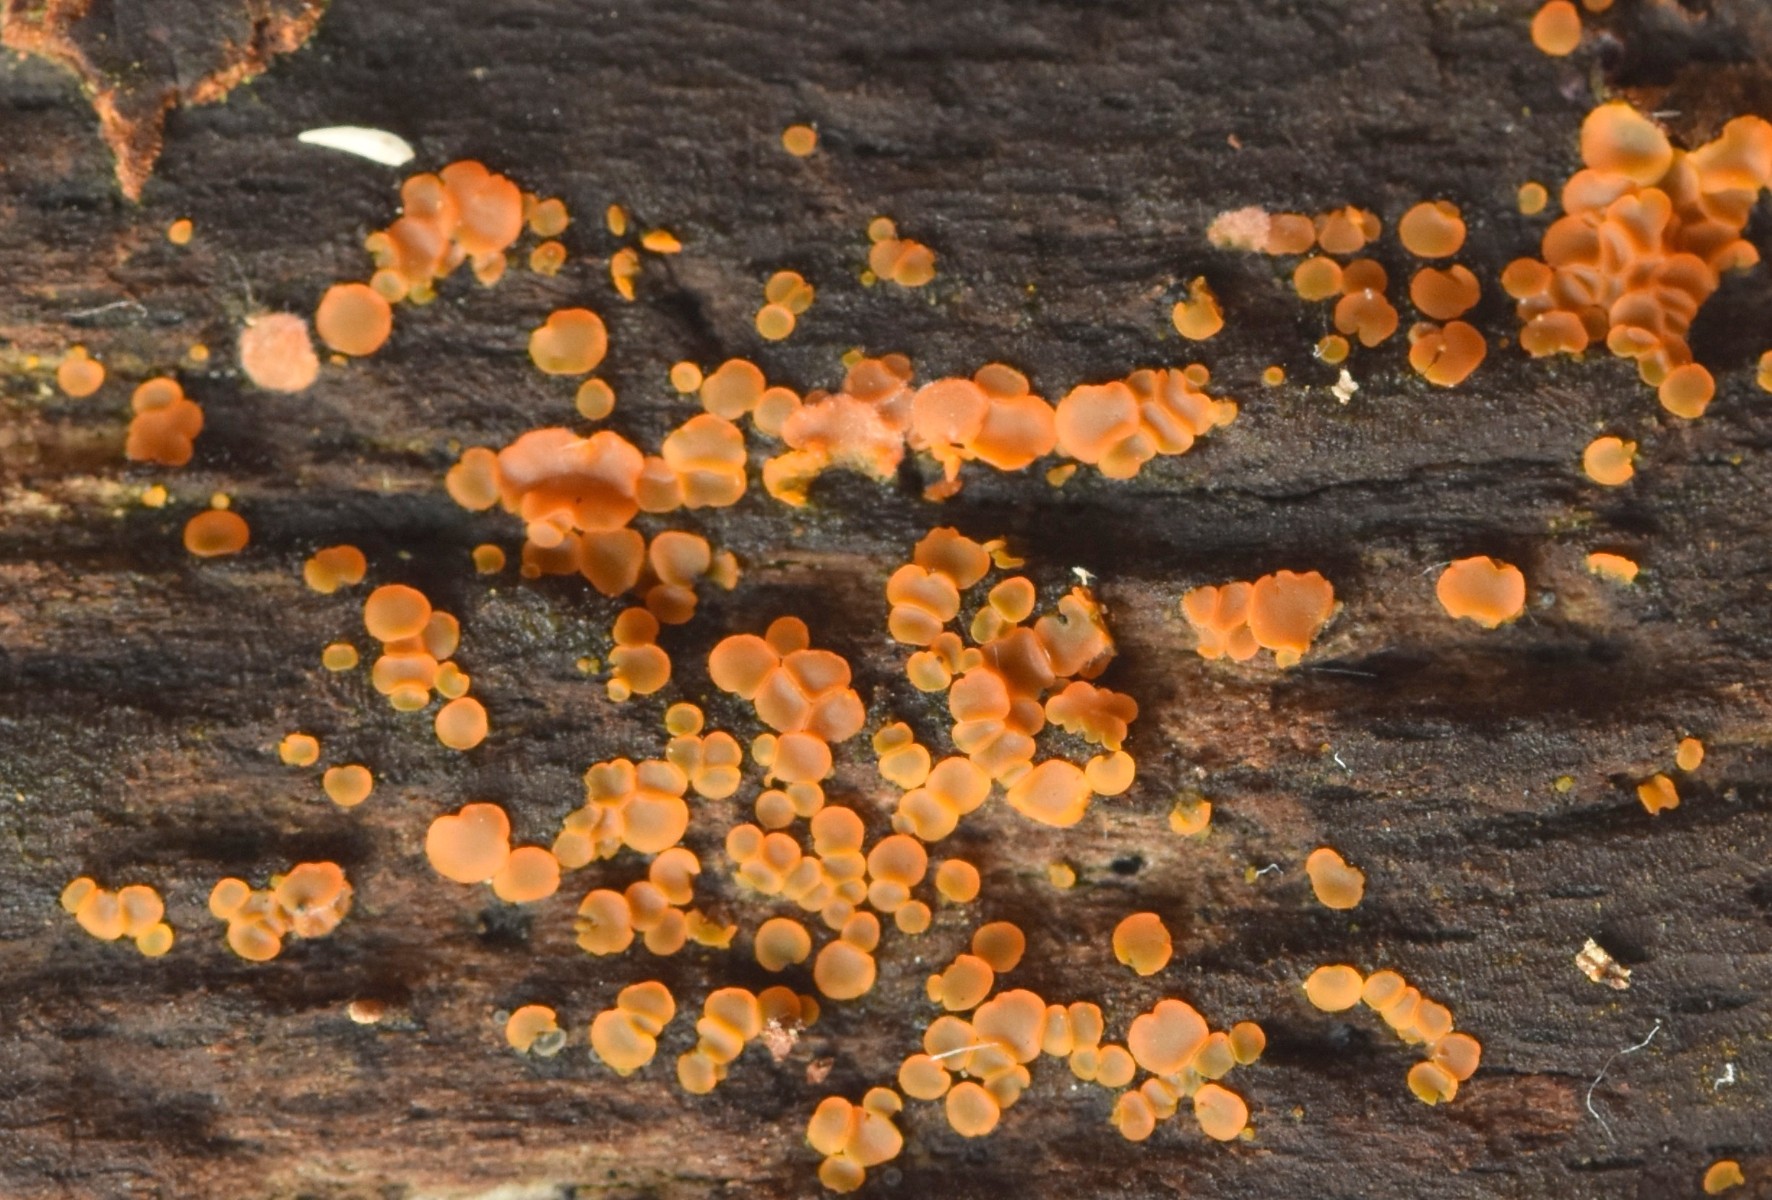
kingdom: Fungi
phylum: Ascomycota
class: Orbiliomycetes
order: Orbiliales
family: Orbiliaceae
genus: Orbilia
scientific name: Orbilia
